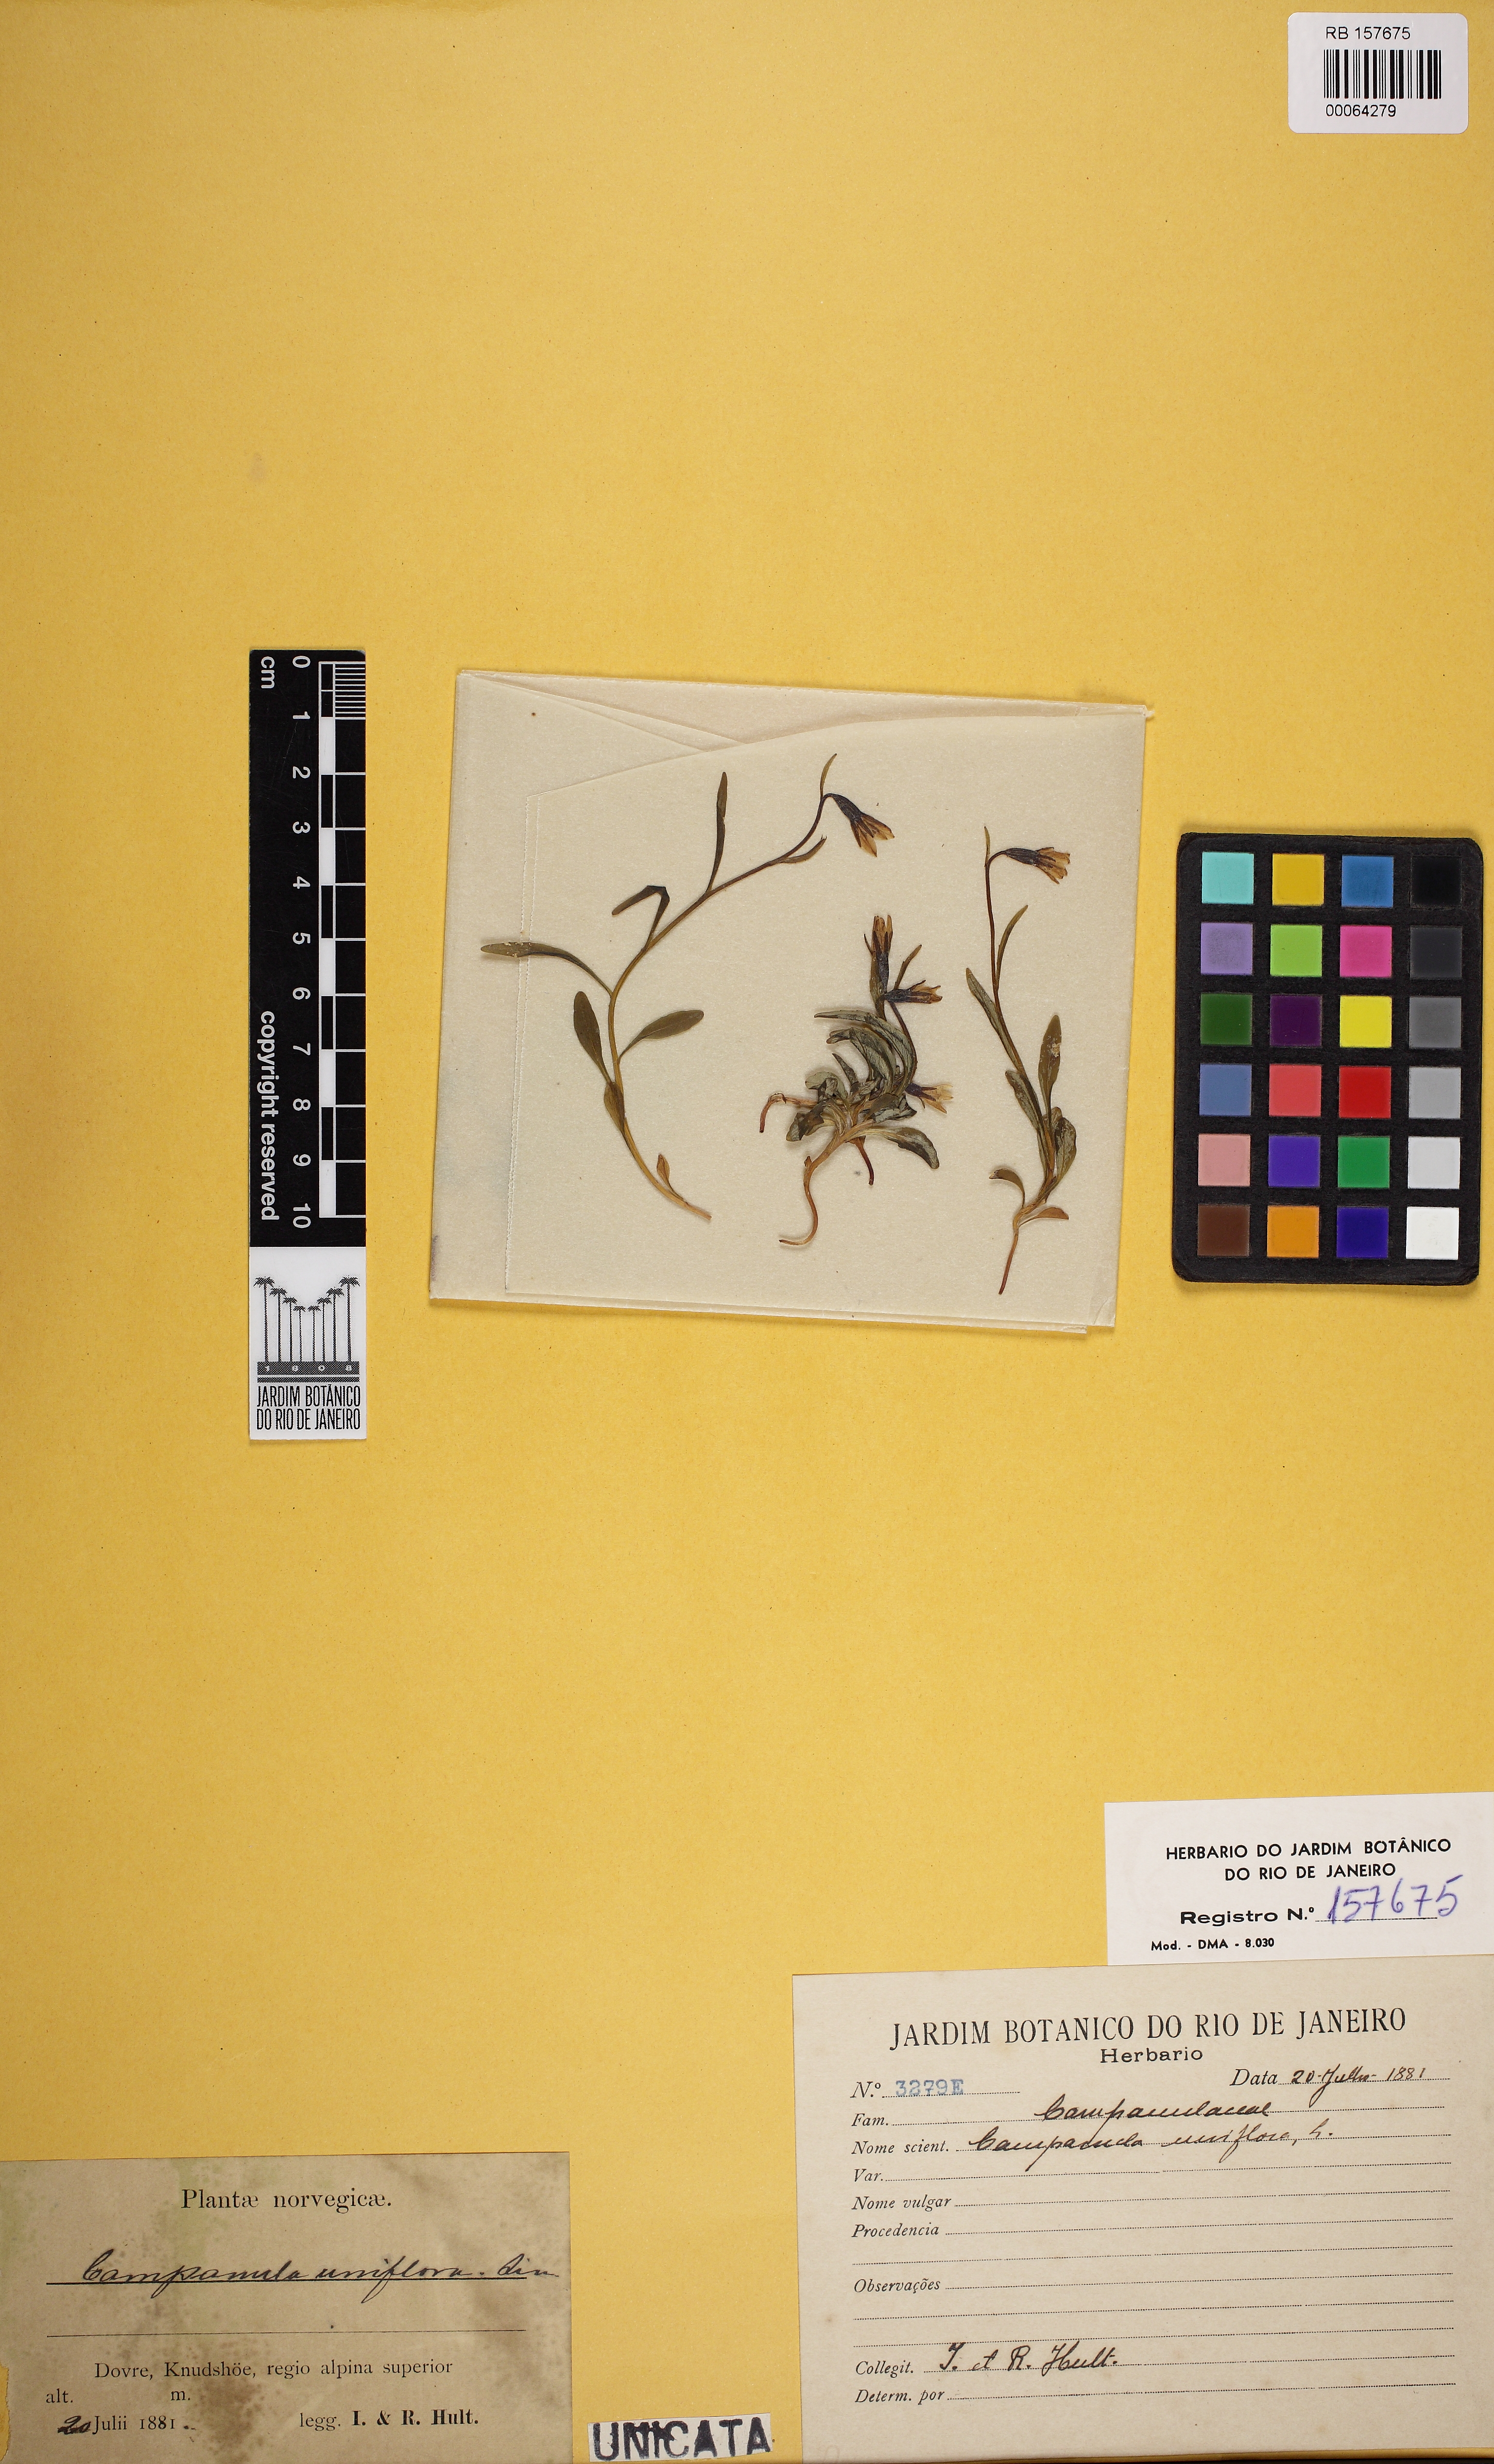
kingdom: Plantae
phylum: Tracheophyta
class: Magnoliopsida
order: Asterales
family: Campanulaceae
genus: Melanocalyx
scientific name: Melanocalyx uniflora
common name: Alpine harebell
